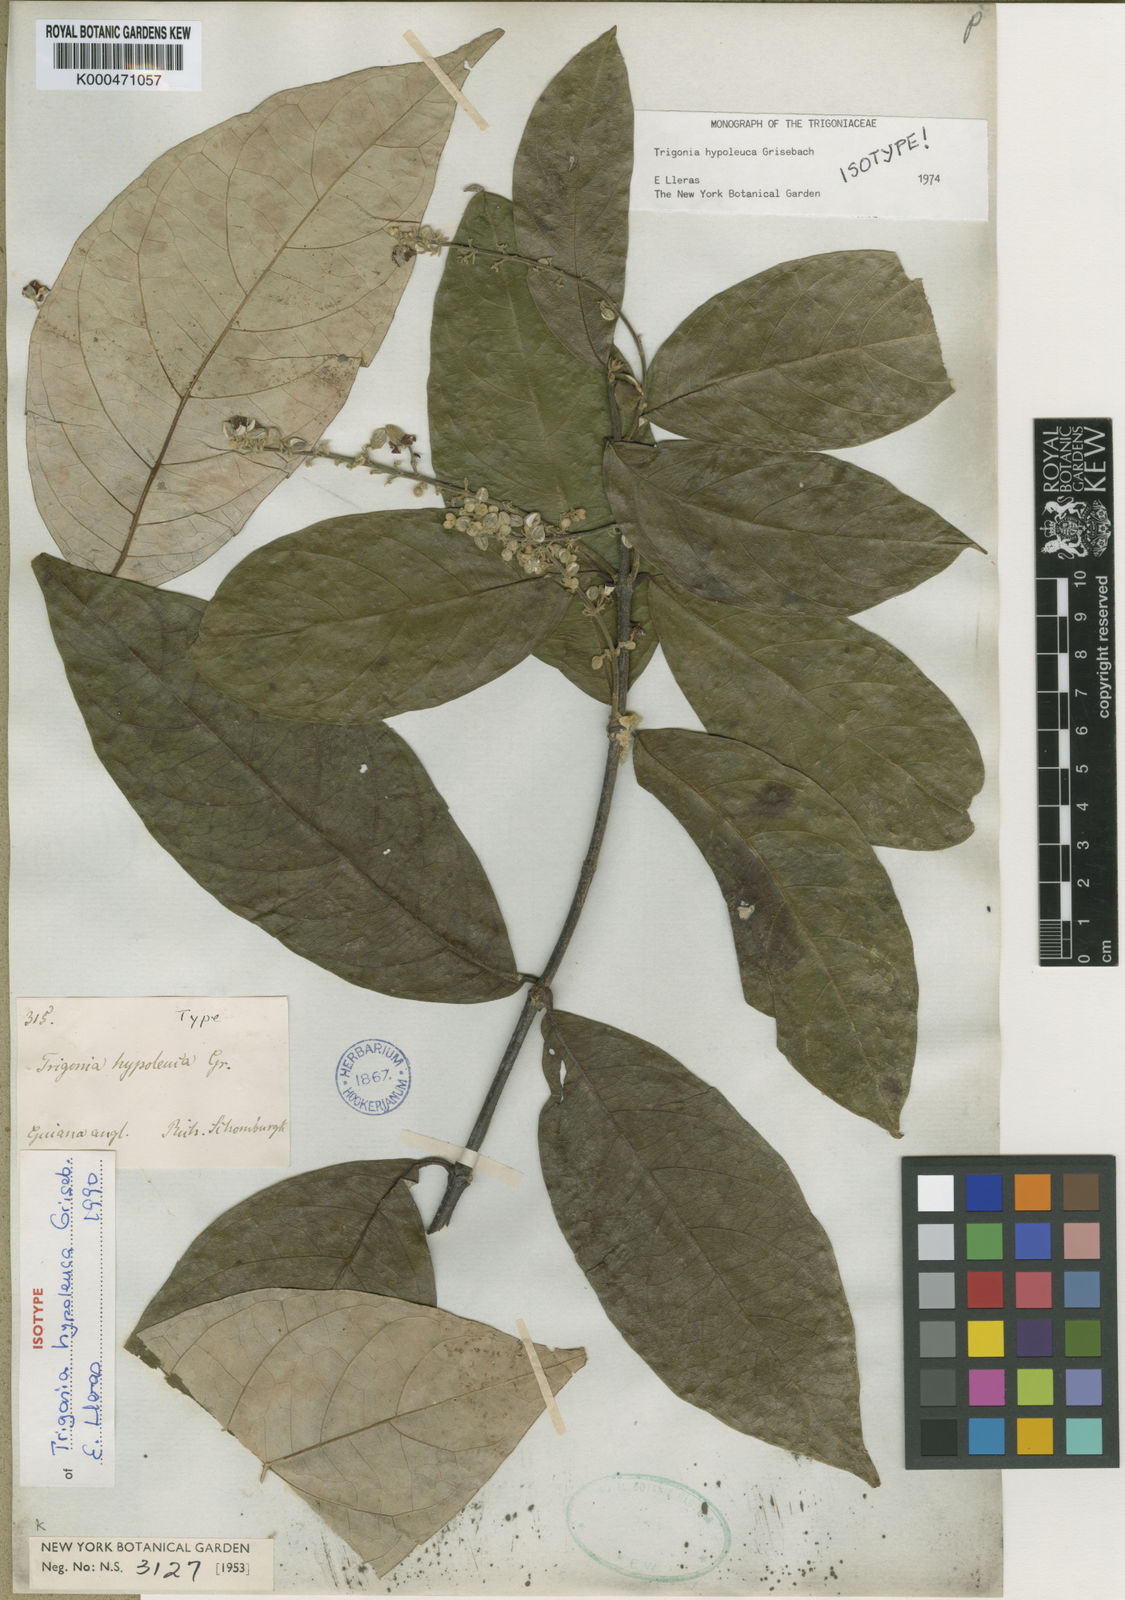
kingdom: Plantae
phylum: Tracheophyta
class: Magnoliopsida
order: Malpighiales
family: Trigoniaceae
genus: Trigonia
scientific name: Trigonia hypoleuca
